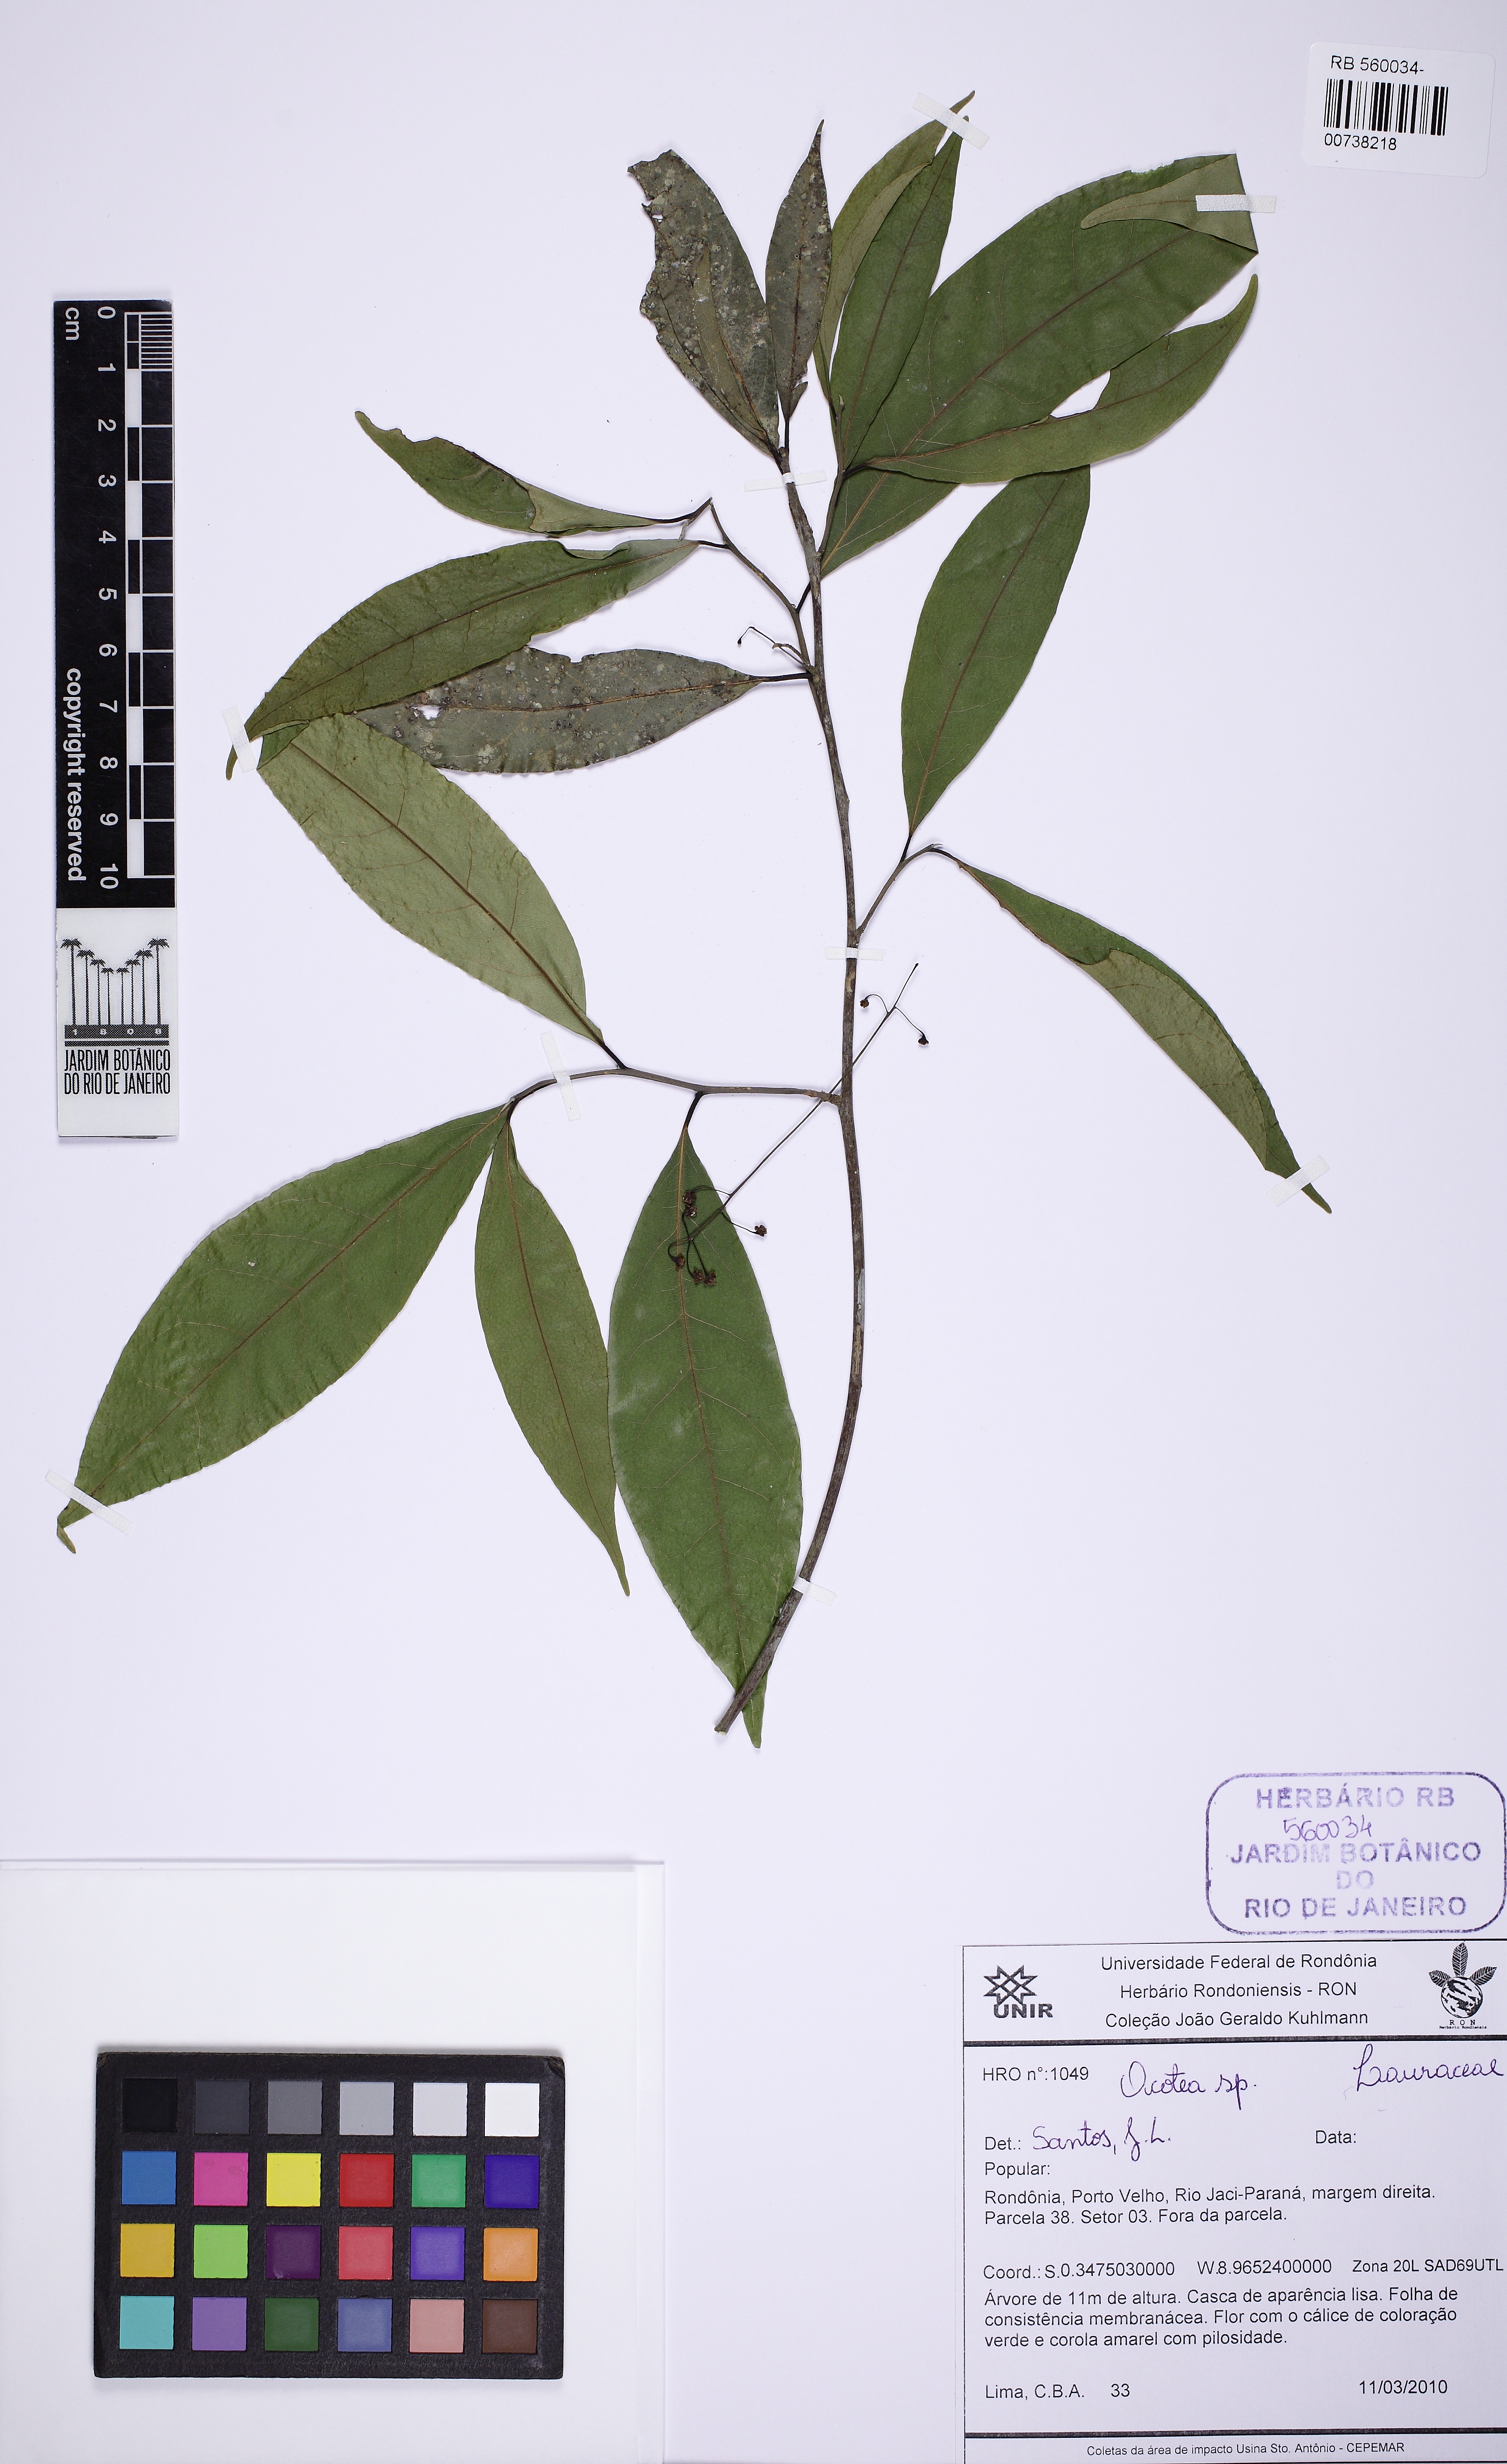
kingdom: Plantae
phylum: Tracheophyta
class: Magnoliopsida
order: Laurales
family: Lauraceae
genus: Ocotea
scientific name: Ocotea
